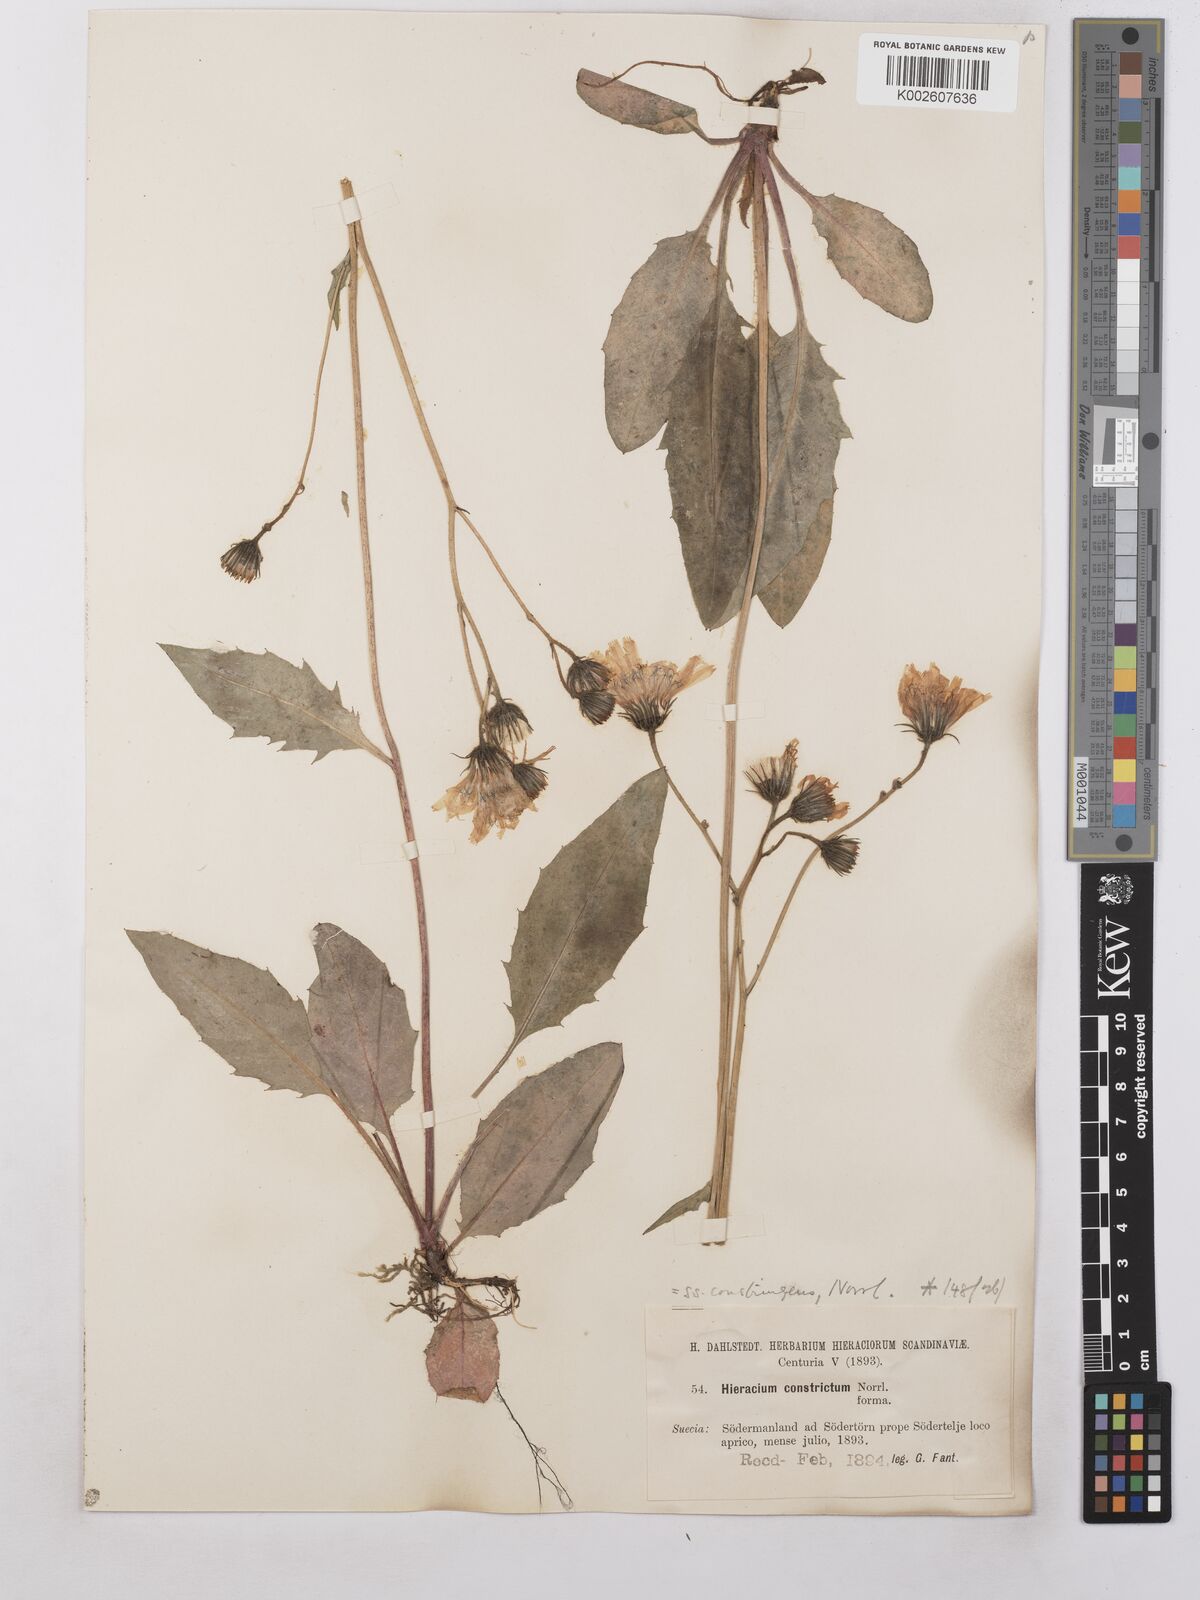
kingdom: Plantae
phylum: Tracheophyta
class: Magnoliopsida
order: Asterales
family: Asteraceae
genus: Hieracium
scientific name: Hieracium subramosum
